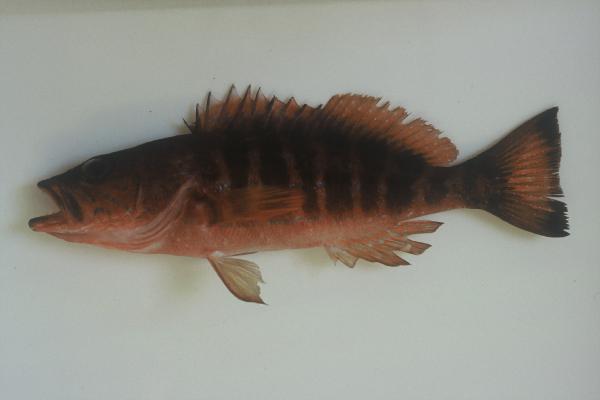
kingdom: Animalia
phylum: Chordata
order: Perciformes
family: Serranidae
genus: Serranus
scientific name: Serranus atricauda
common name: Blacktail comber
